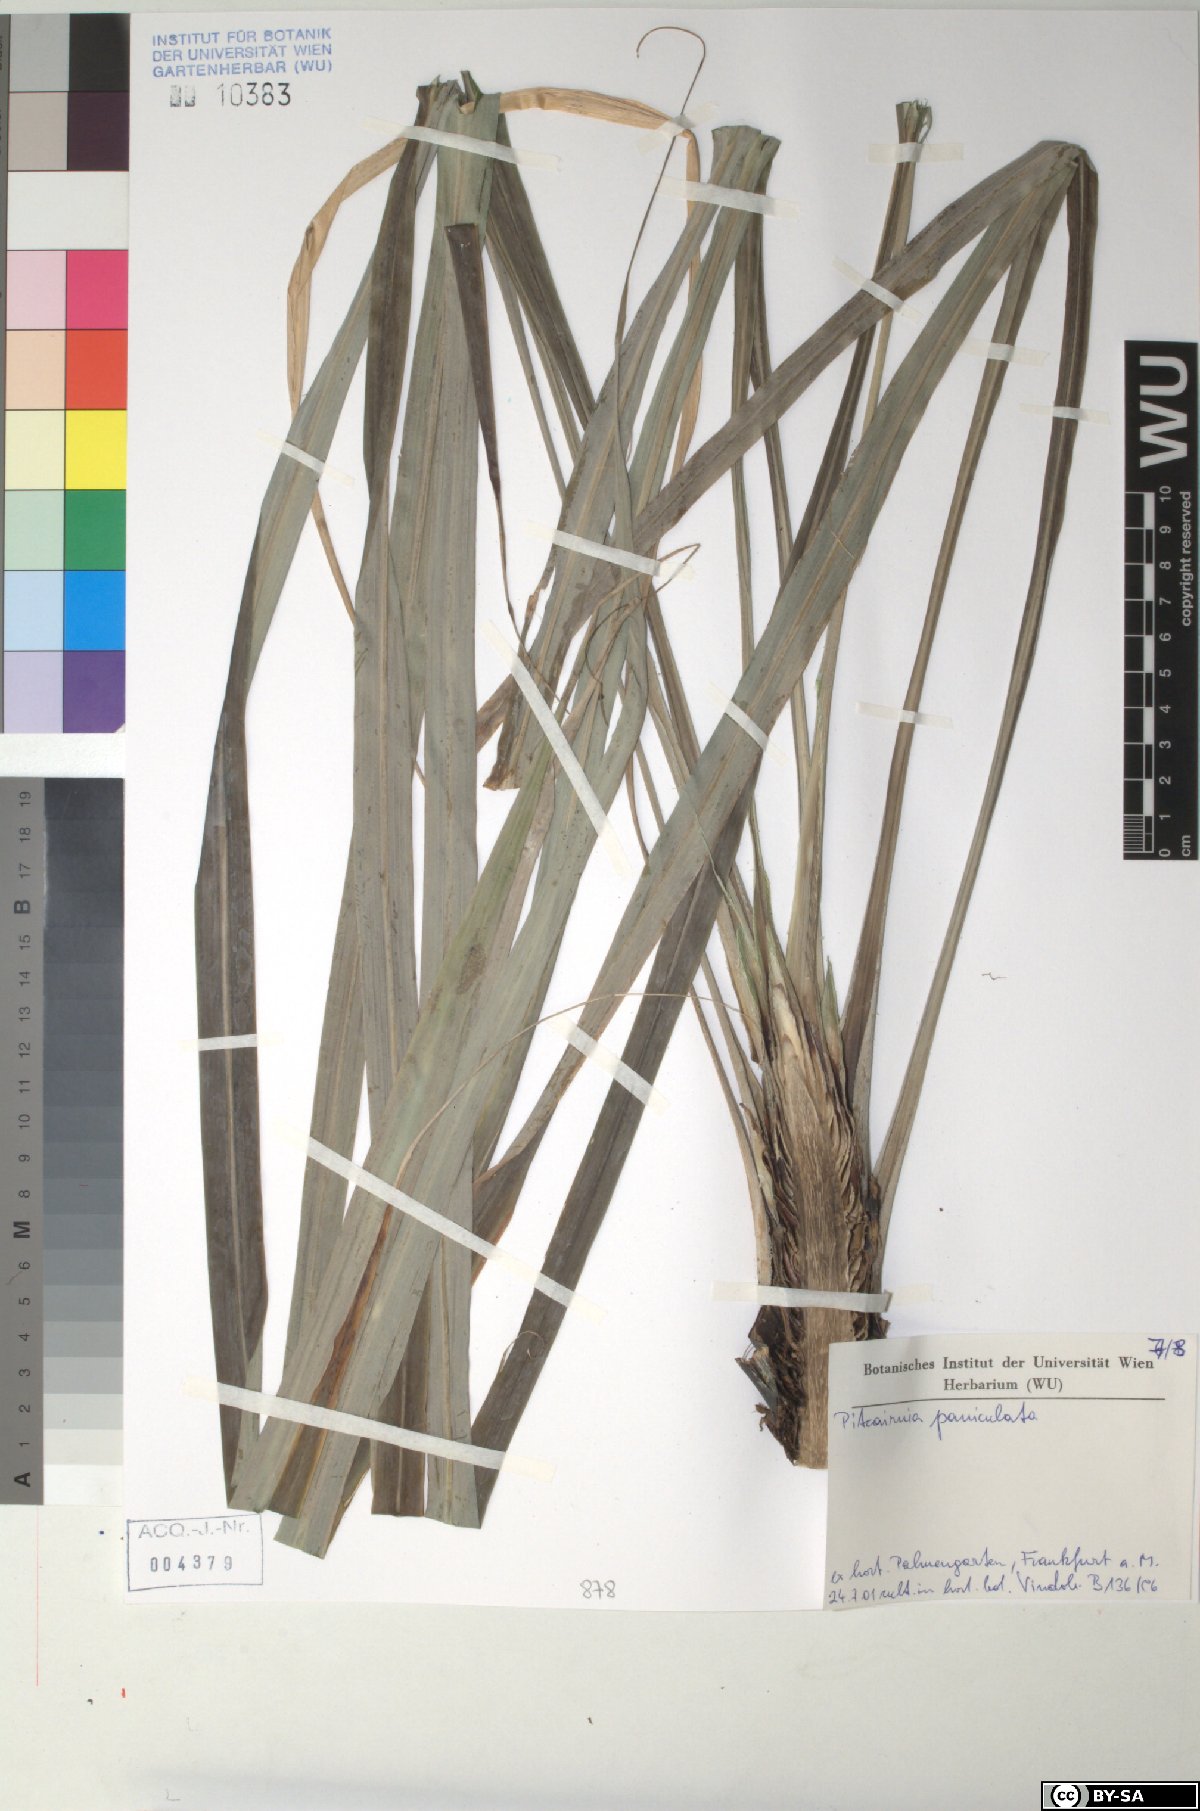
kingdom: Plantae
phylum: Tracheophyta
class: Liliopsida
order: Poales
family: Bromeliaceae
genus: Pitcairnia
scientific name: Pitcairnia paniculata
